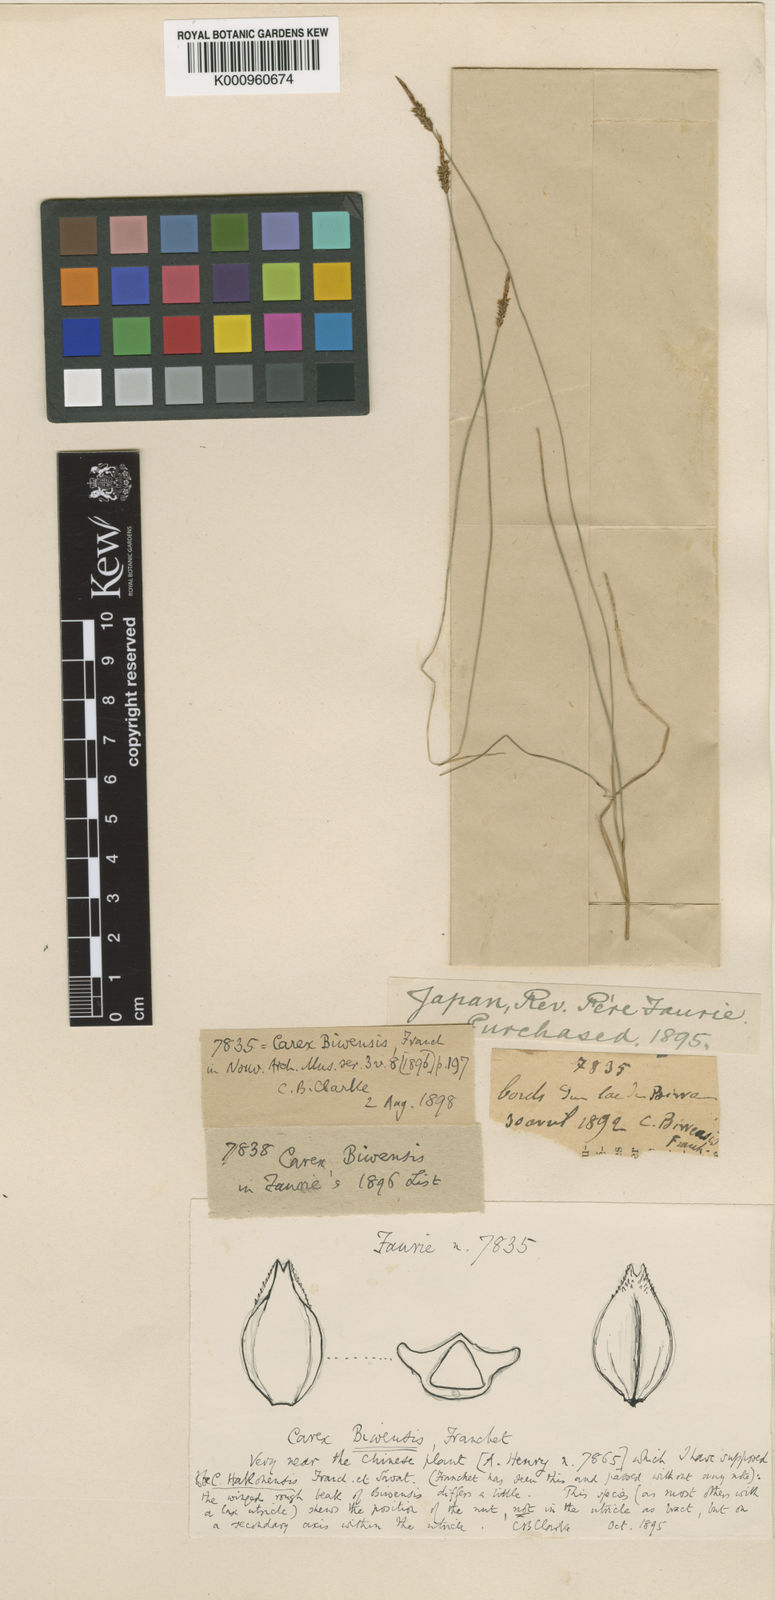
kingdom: Plantae
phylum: Tracheophyta
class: Liliopsida
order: Poales
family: Cyperaceae
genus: Carex
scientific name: Carex rara
